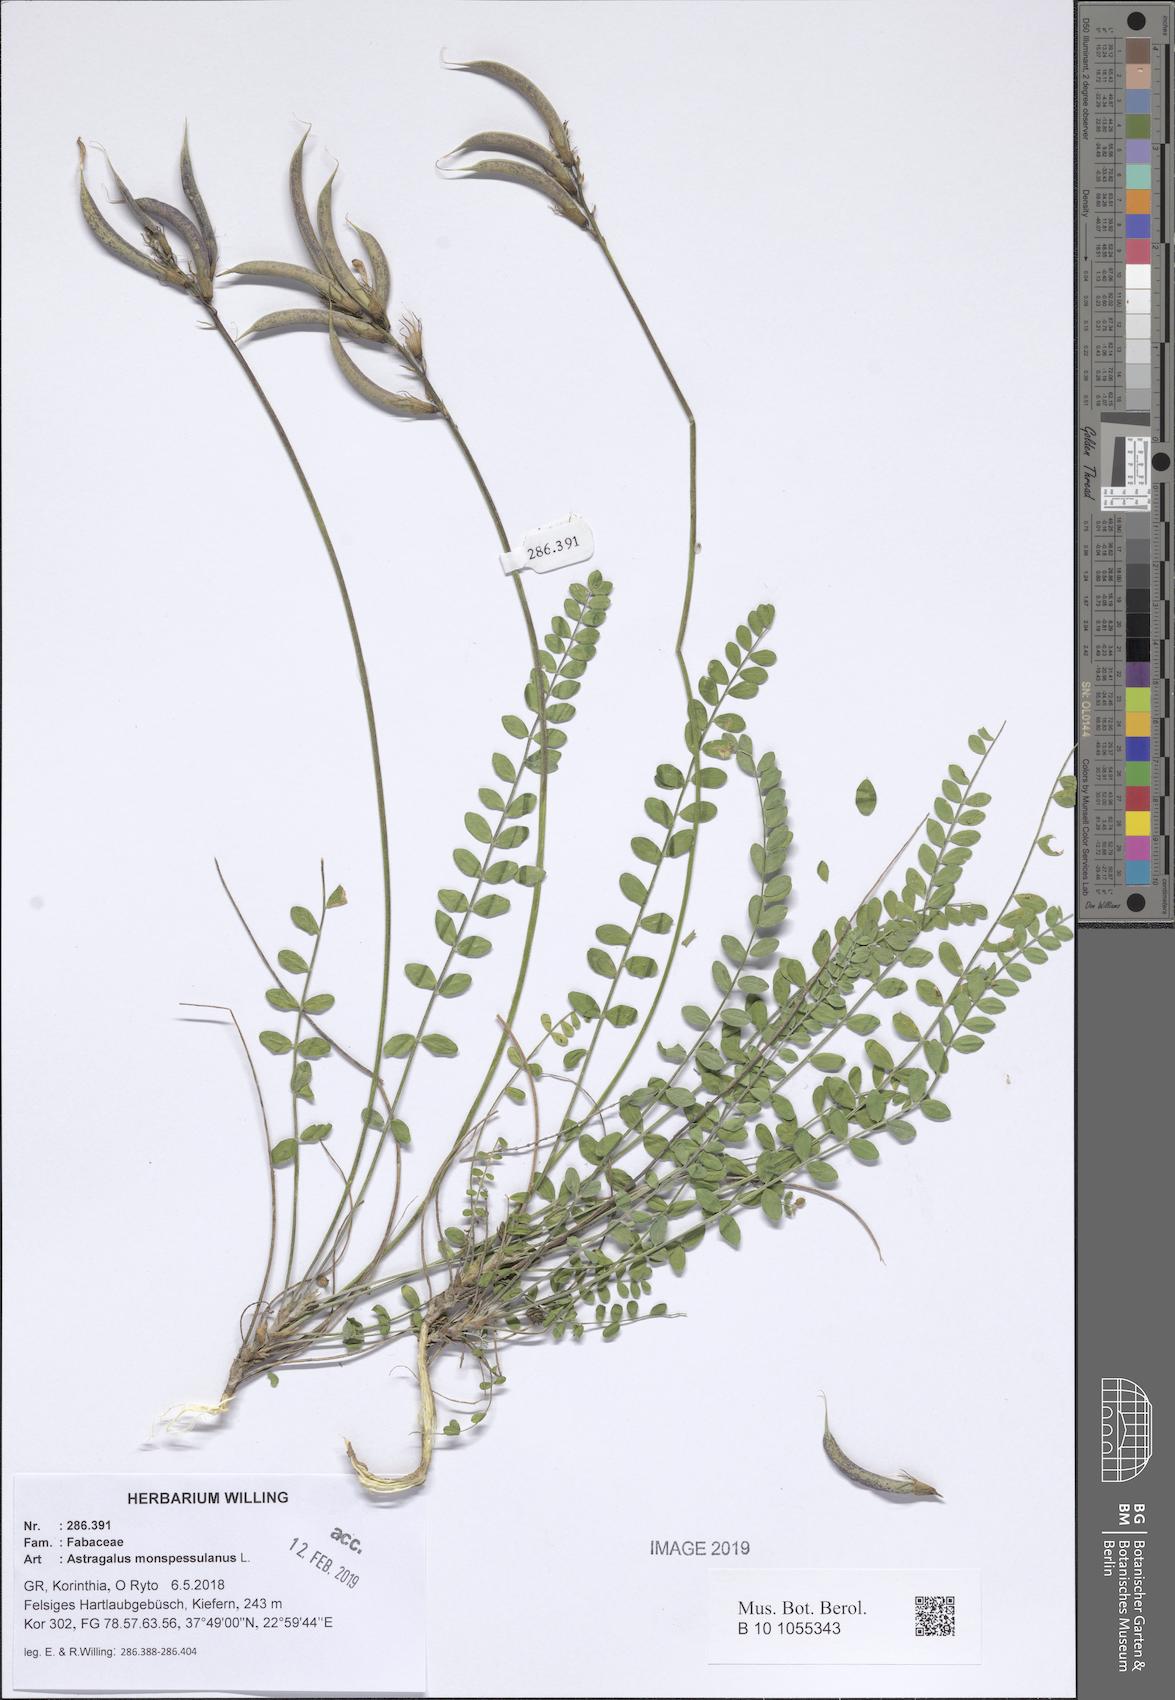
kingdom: Plantae
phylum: Tracheophyta
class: Magnoliopsida
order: Fabales
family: Fabaceae
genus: Astragalus
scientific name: Astragalus monspessulanus
